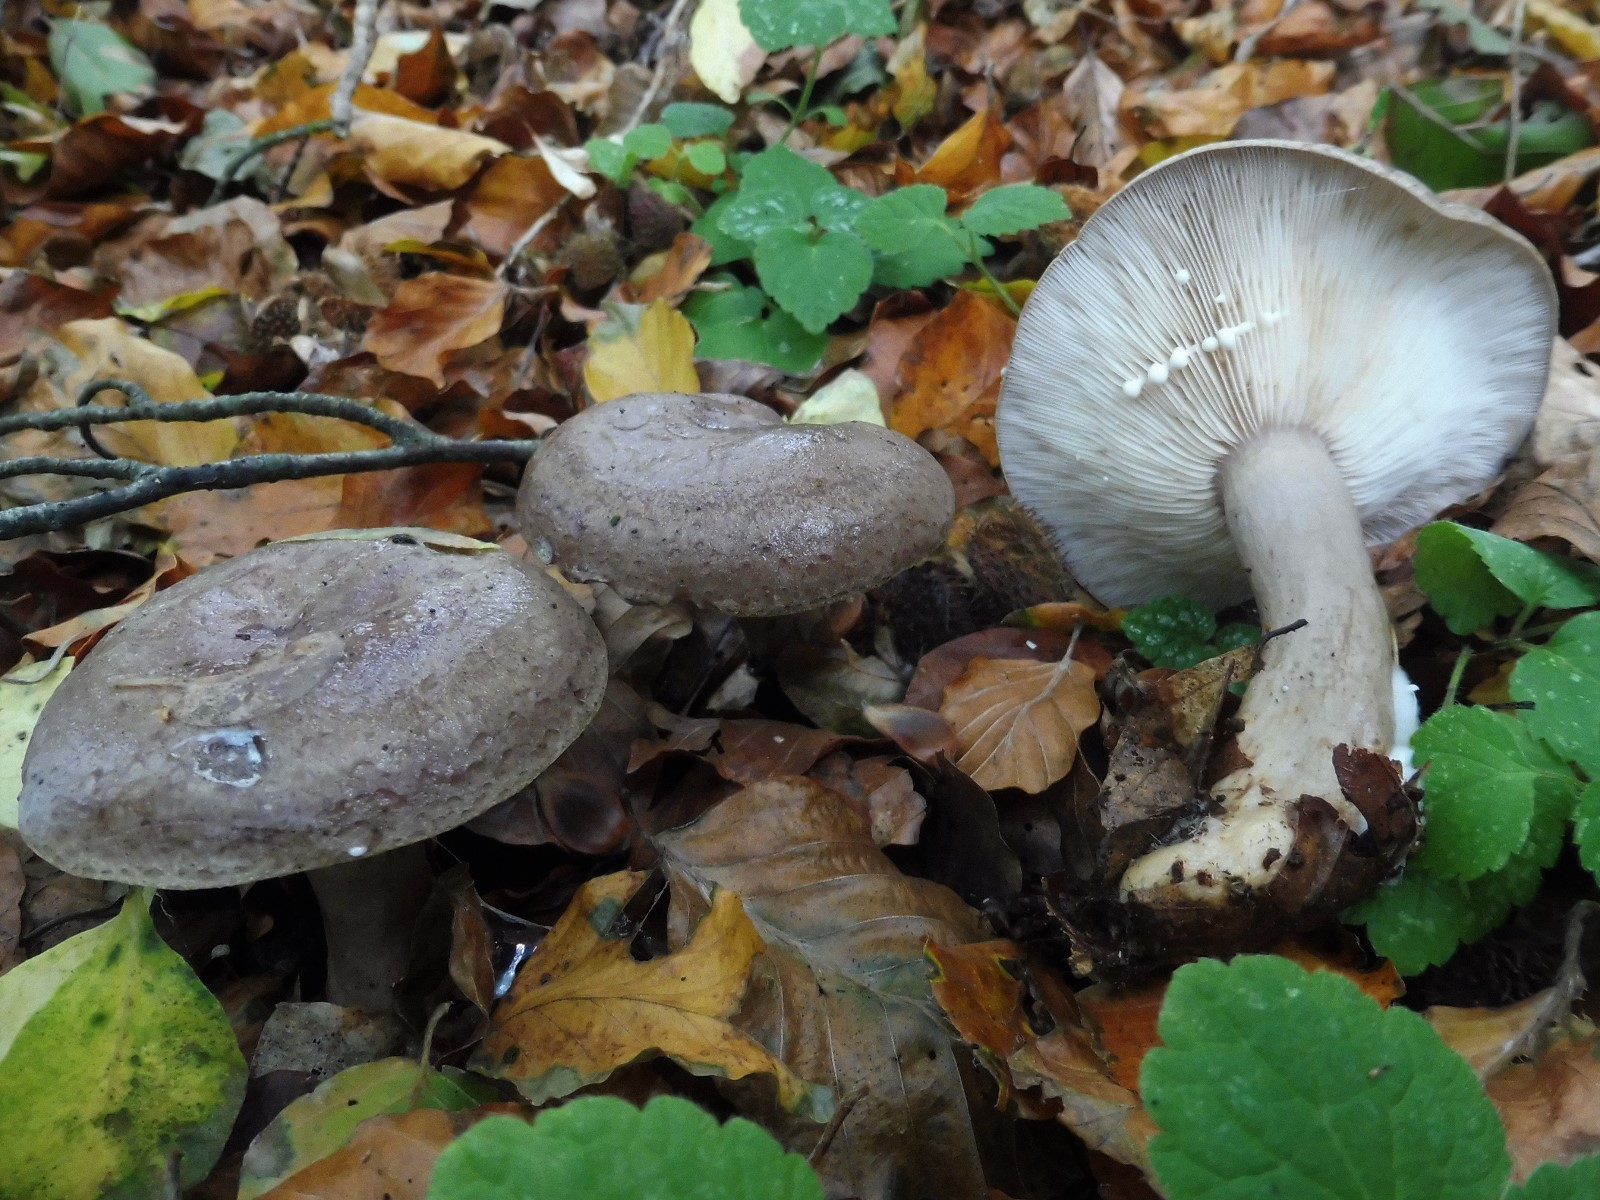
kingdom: Fungi
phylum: Basidiomycota
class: Agaricomycetes
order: Russulales
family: Russulaceae
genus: Lactarius
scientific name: Lactarius blennius
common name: dråbeplettet mælkehat
